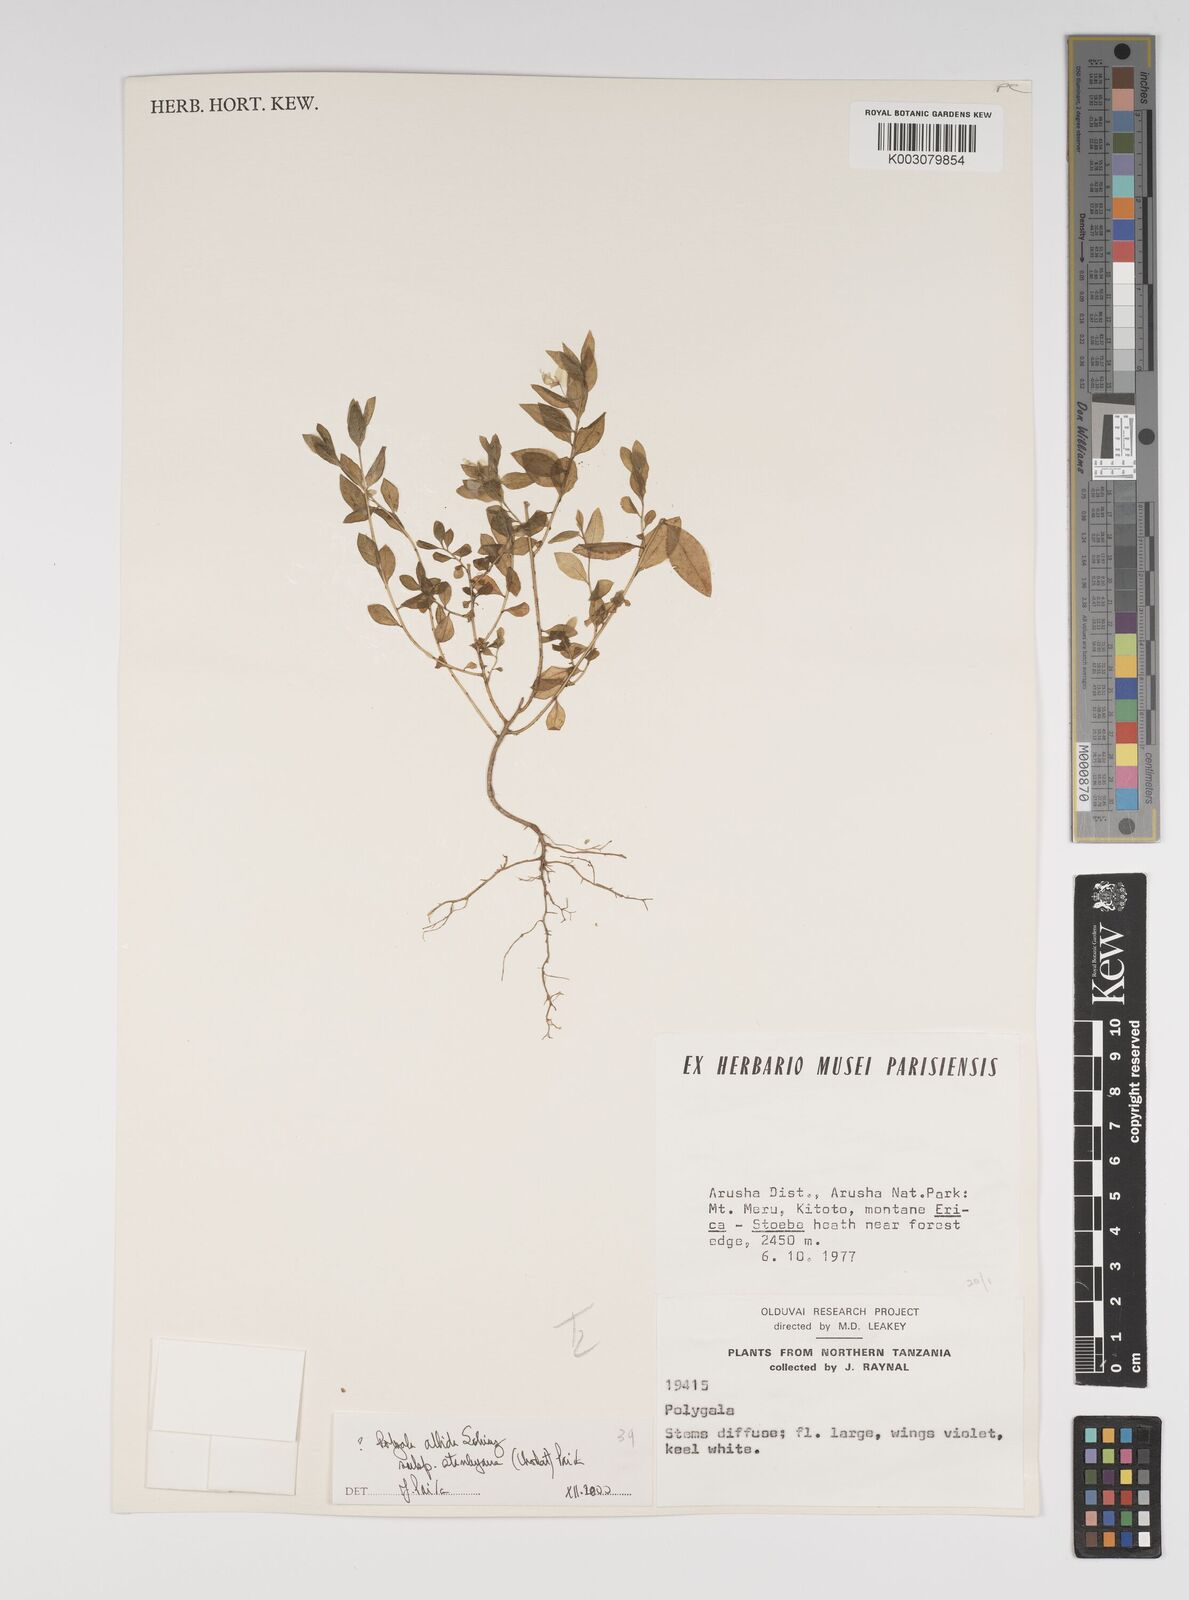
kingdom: Plantae
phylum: Tracheophyta
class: Magnoliopsida
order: Fabales
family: Polygalaceae
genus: Polygala
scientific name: Polygala albida
